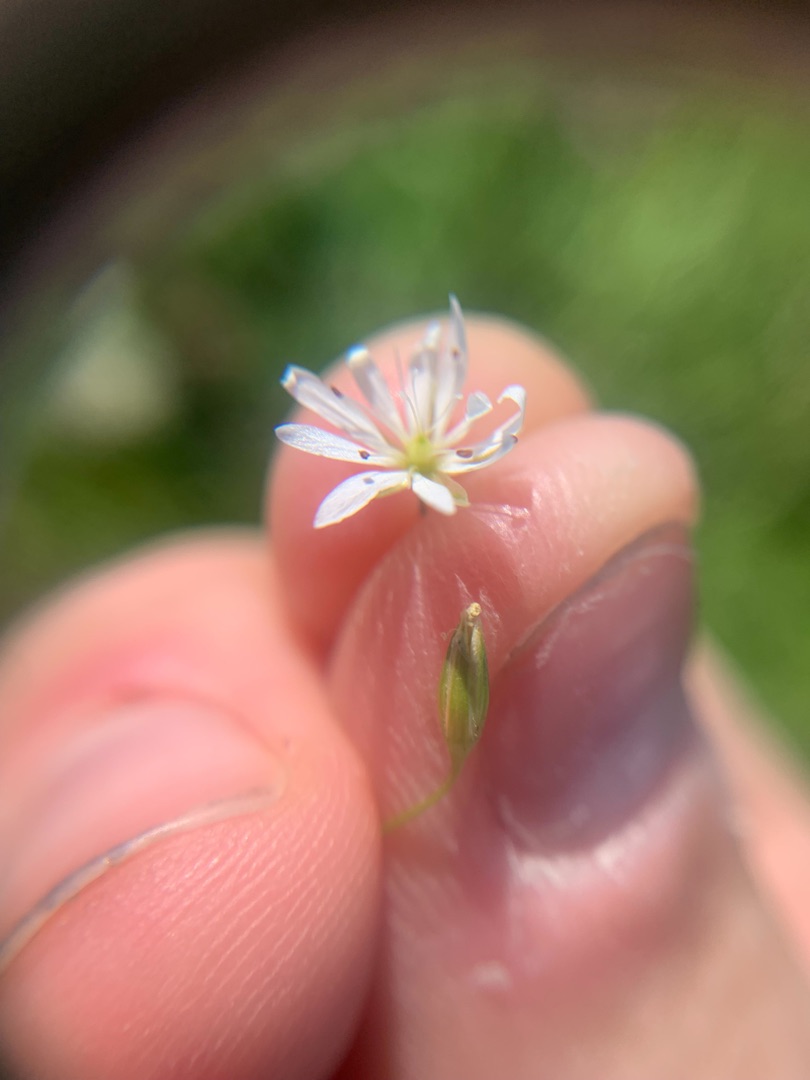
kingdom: Plantae
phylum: Tracheophyta
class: Magnoliopsida
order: Caryophyllales
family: Caryophyllaceae
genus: Stellaria
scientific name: Stellaria graminea
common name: Græsbladet fladstjerne
